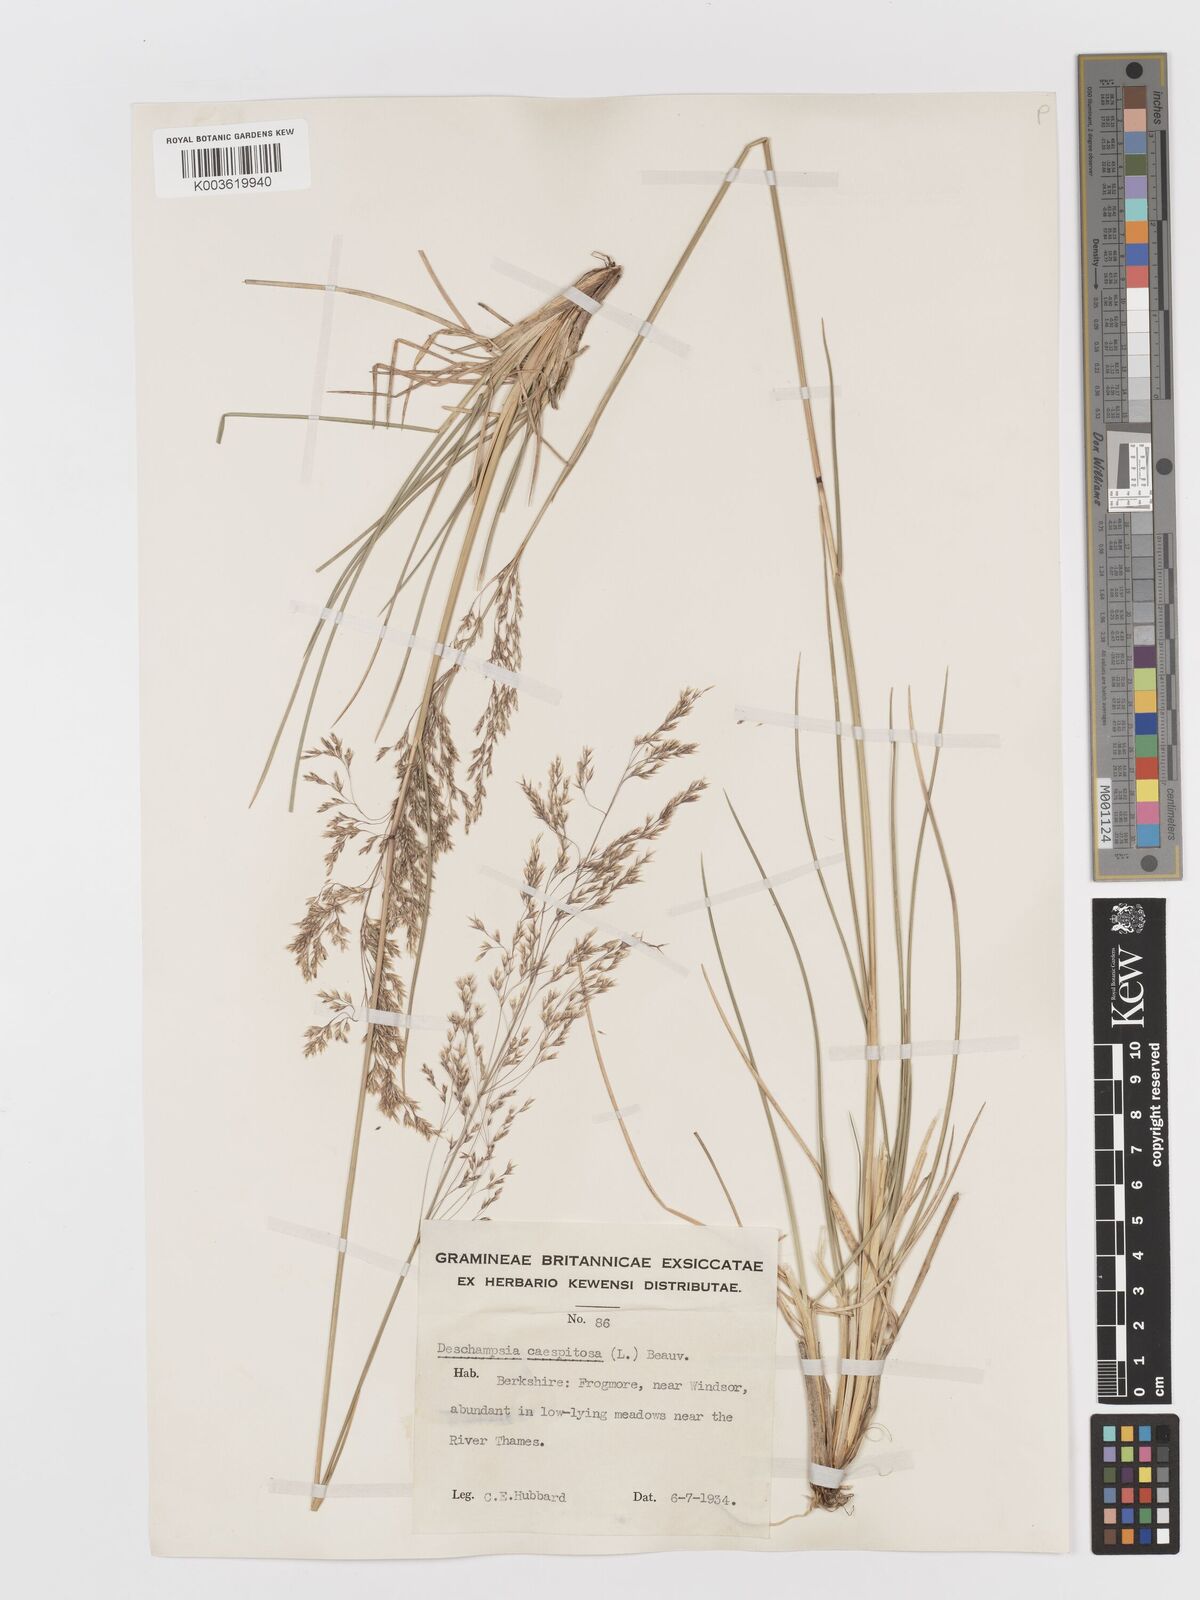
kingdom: Plantae
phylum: Tracheophyta
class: Liliopsida
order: Poales
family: Poaceae
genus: Deschampsia
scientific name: Deschampsia
